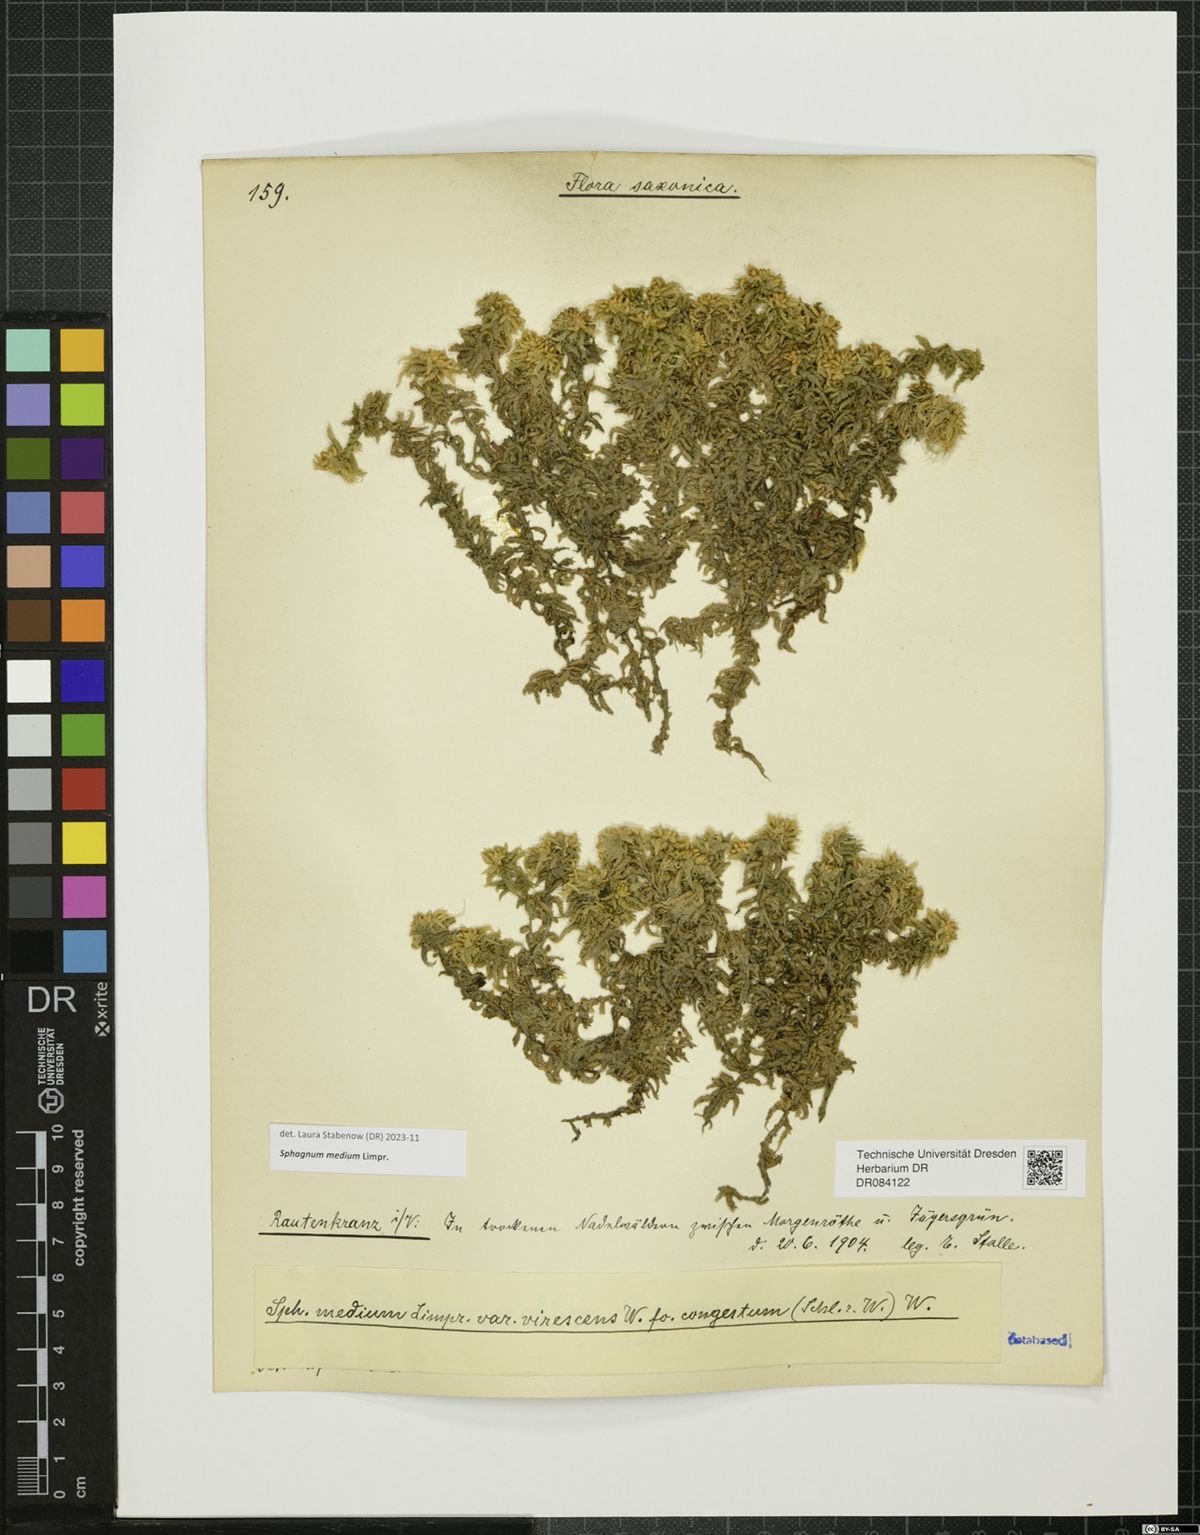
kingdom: Plantae
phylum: Bryophyta
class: Sphagnopsida
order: Sphagnales
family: Sphagnaceae
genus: Sphagnum
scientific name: Sphagnum medium
